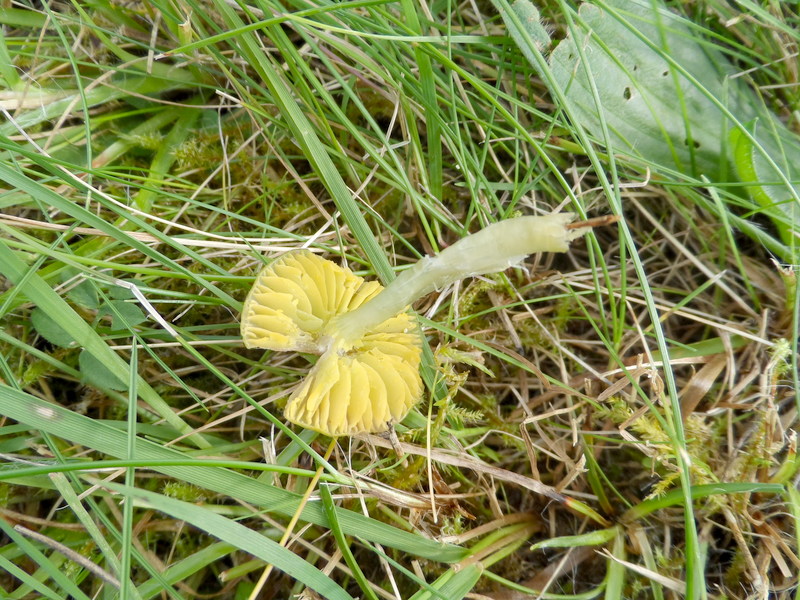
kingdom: Fungi
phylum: Basidiomycota
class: Agaricomycetes
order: Agaricales
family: Hygrophoraceae
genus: Gliophorus
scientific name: Gliophorus psittacinus
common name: Parrot wax-cap
